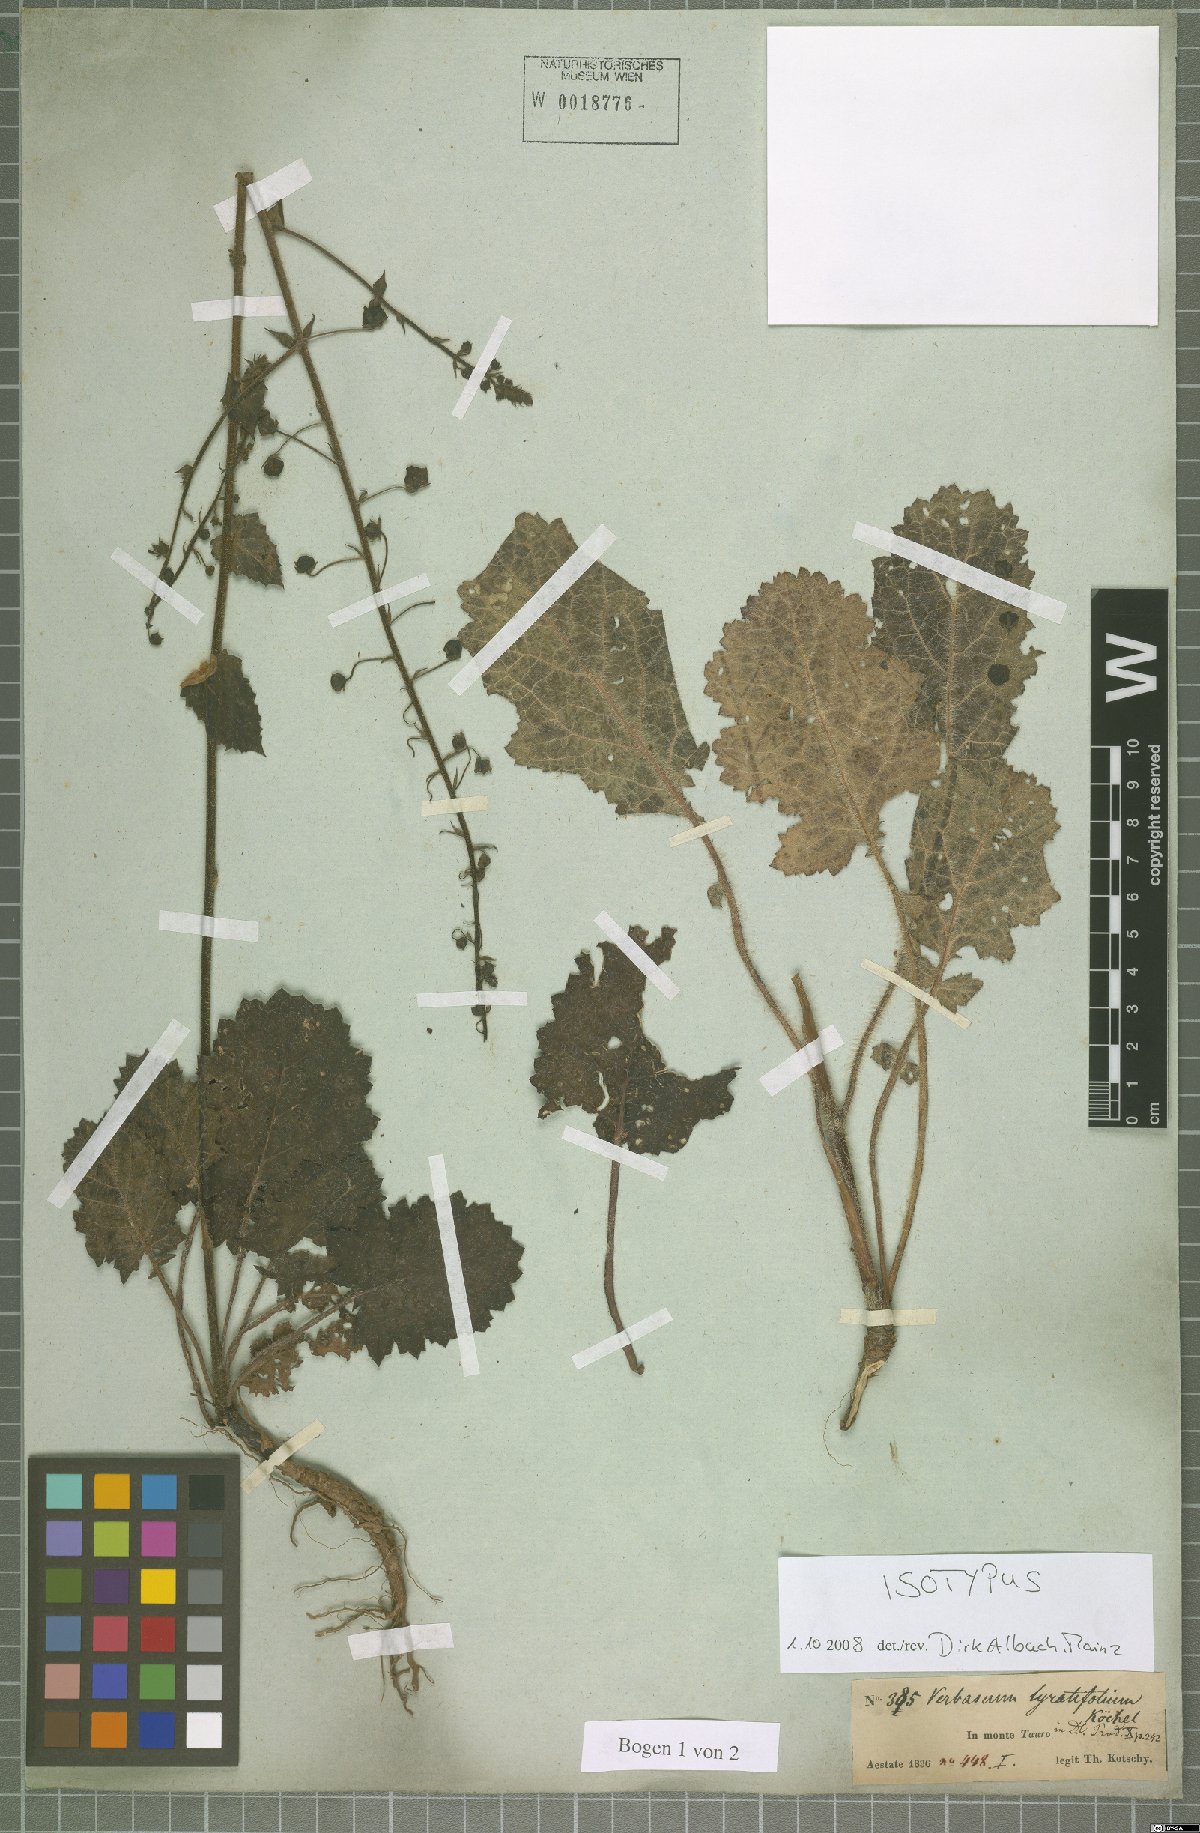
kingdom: Plantae
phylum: Tracheophyta
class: Magnoliopsida
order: Lamiales
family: Scrophulariaceae
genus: Verbascum
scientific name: Verbascum lyratifolium
